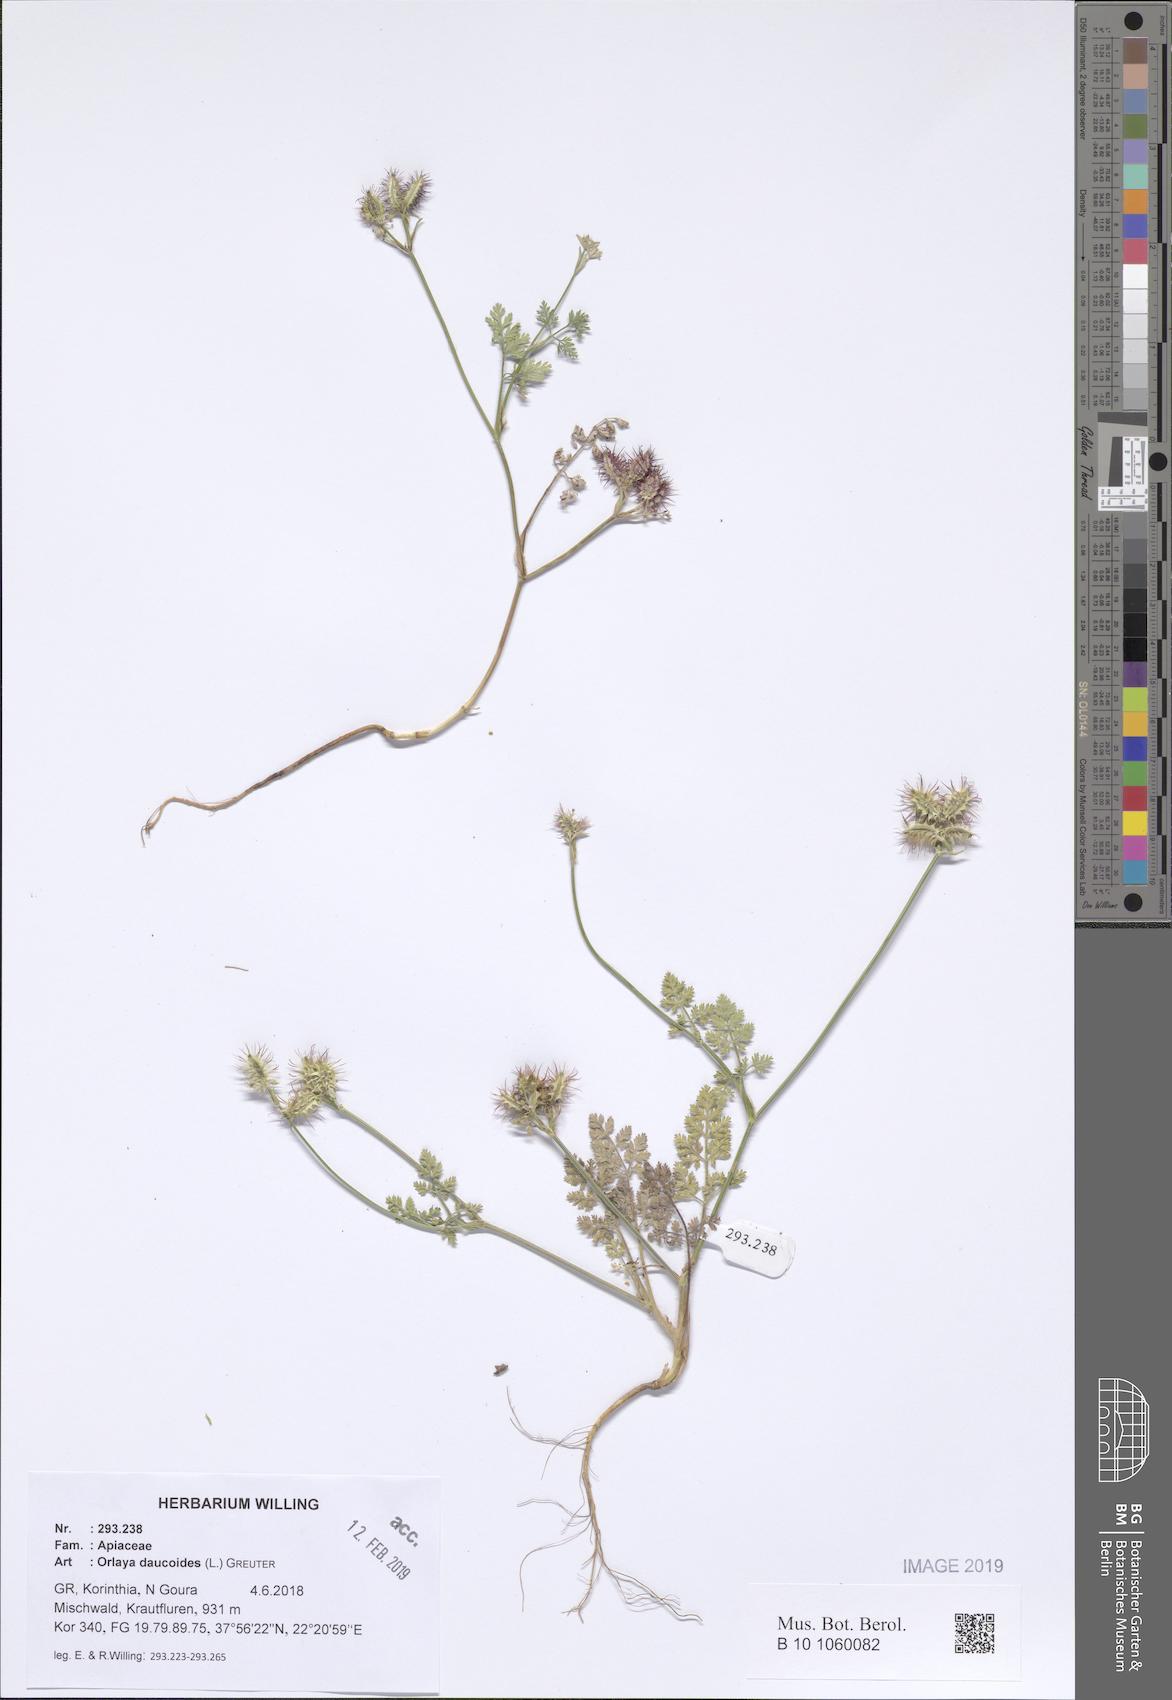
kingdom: Plantae
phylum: Tracheophyta
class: Magnoliopsida
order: Apiales
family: Apiaceae
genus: Orlaya
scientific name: Orlaya daucoides
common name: Flat-fruit orlaya
